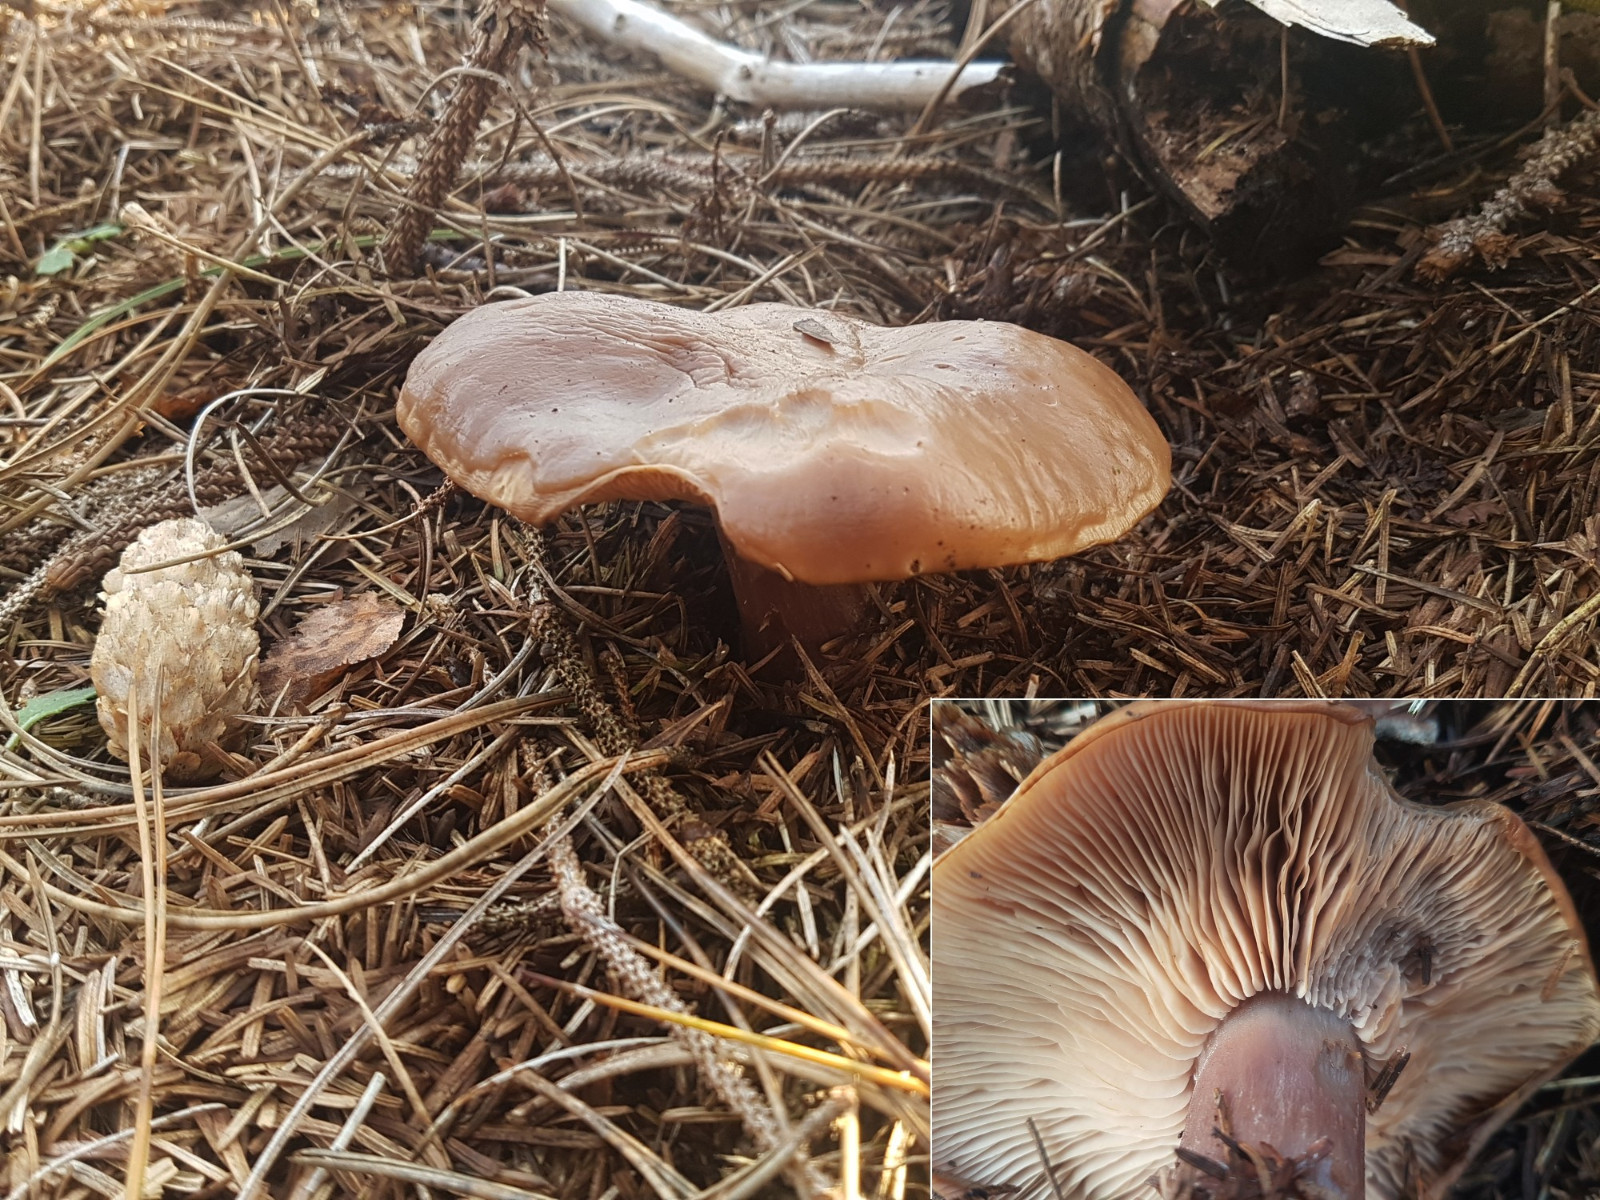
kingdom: Fungi
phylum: Basidiomycota
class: Agaricomycetes
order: Agaricales
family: Tricholomataceae
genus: Lepista
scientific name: Lepista personata
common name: bleg hekseringshat
